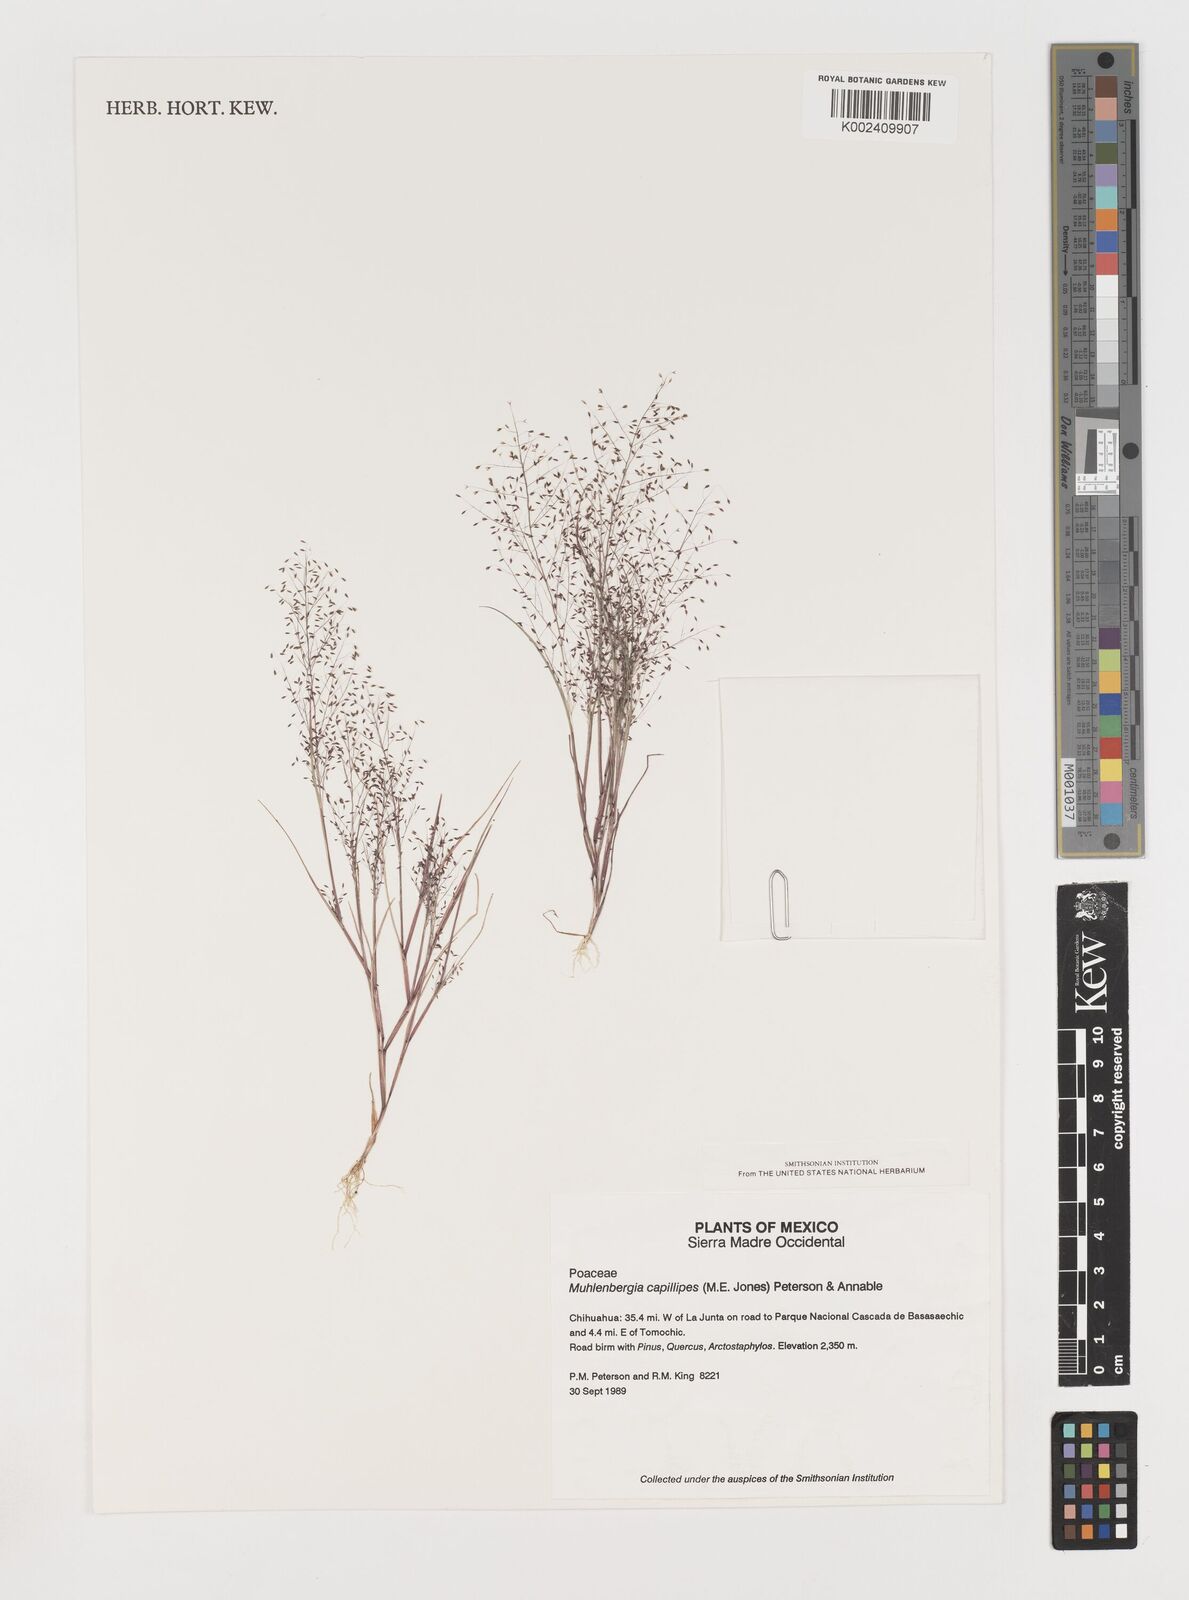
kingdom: Plantae
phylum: Tracheophyta
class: Liliopsida
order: Poales
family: Poaceae
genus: Muhlenbergia
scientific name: Muhlenbergia capillipes
